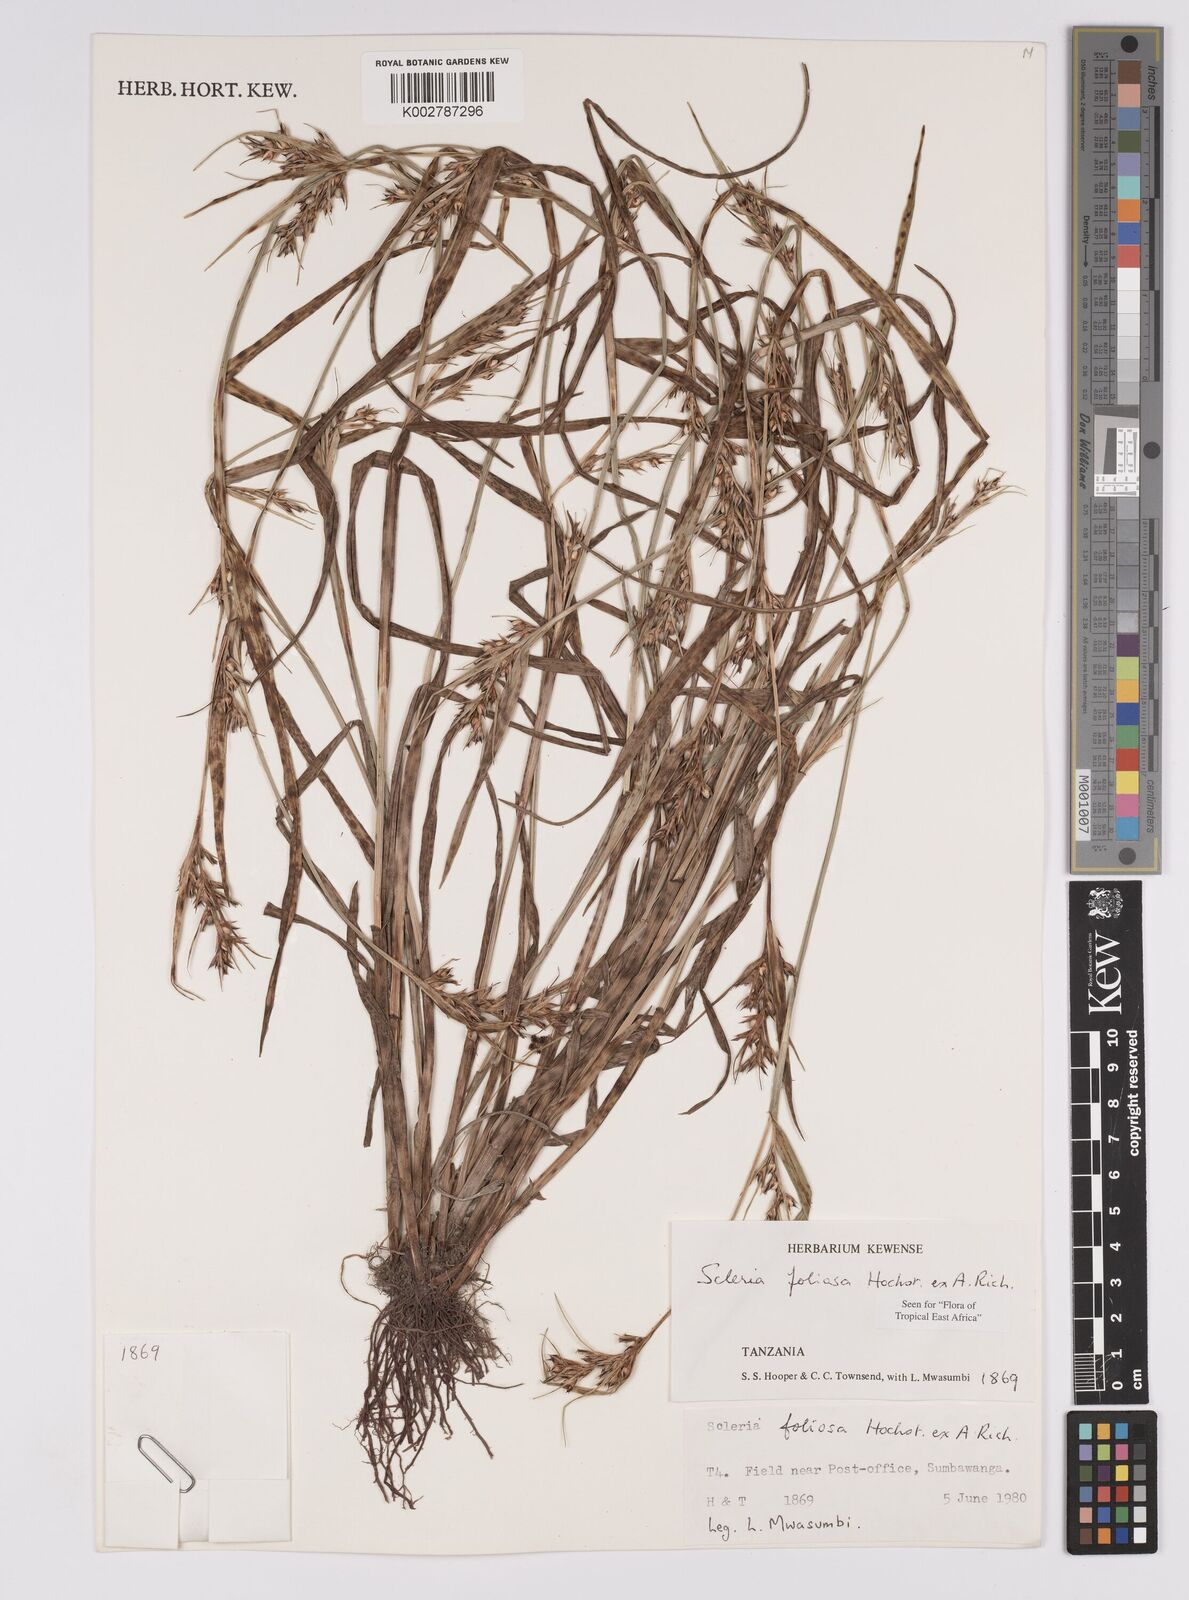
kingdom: Plantae
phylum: Tracheophyta
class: Liliopsida
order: Poales
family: Cyperaceae
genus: Scleria
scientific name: Scleria foliosa
